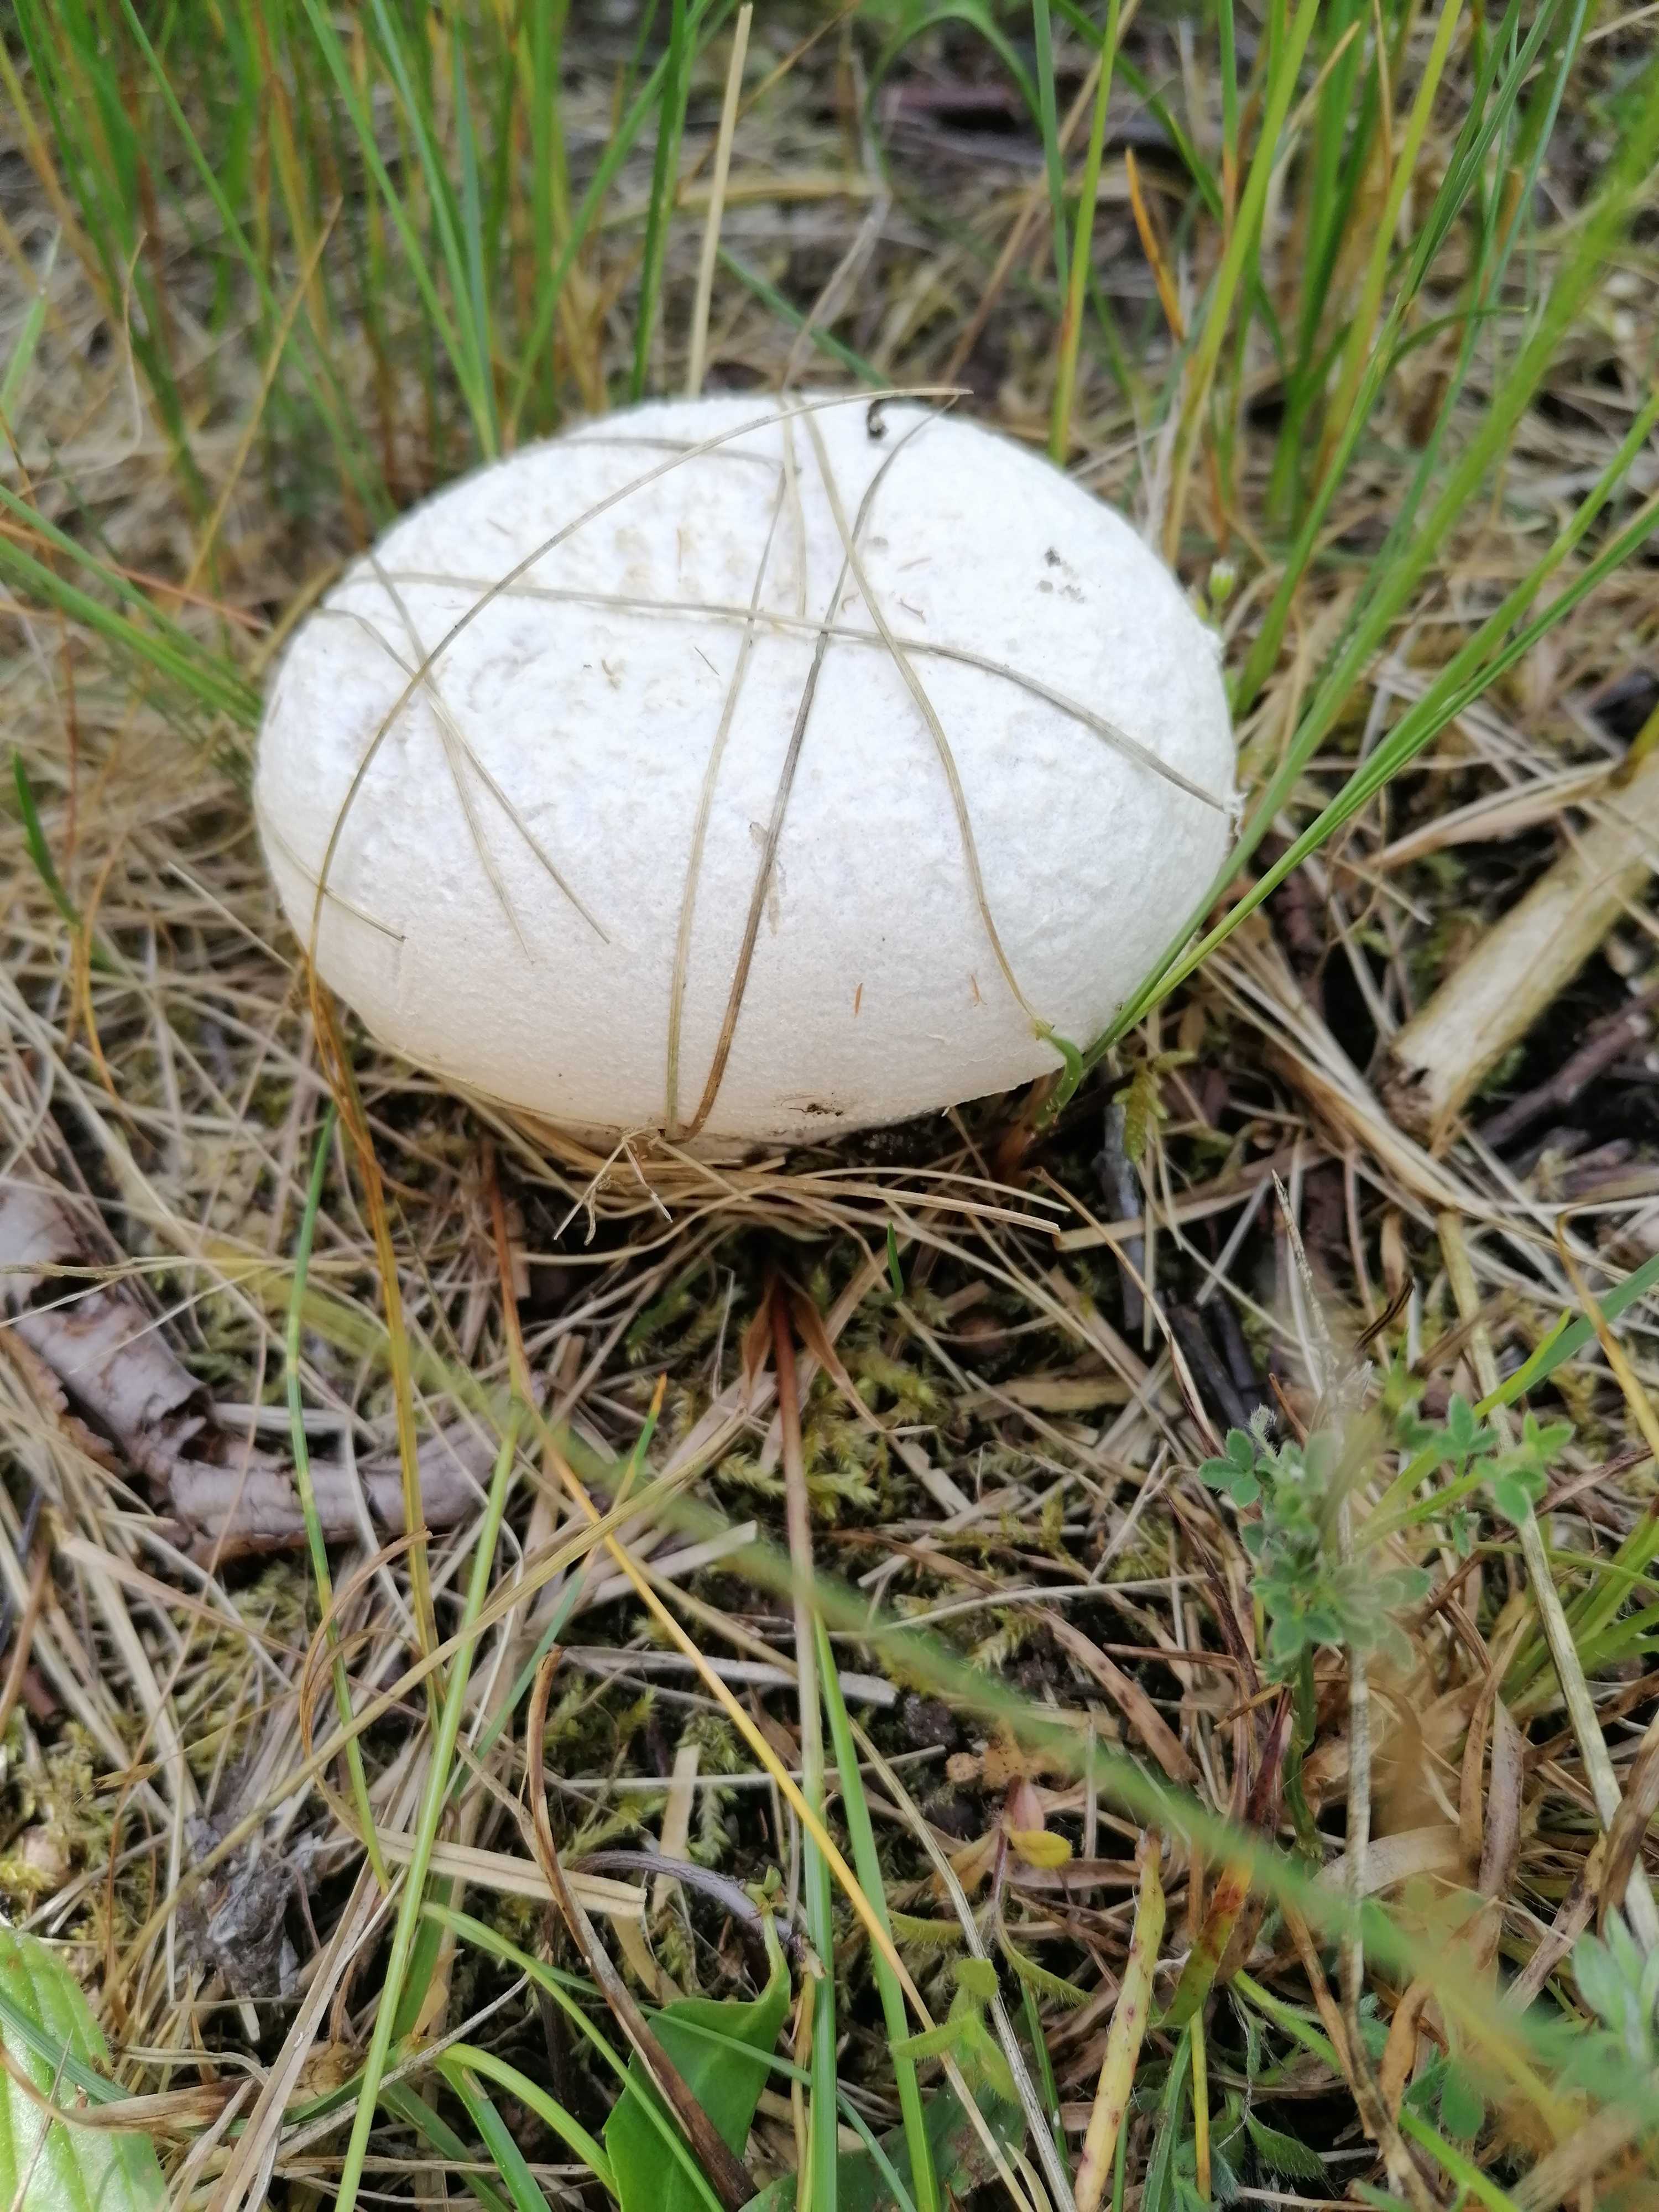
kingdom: Fungi
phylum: Basidiomycota
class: Agaricomycetes
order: Agaricales
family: Lycoperdaceae
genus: Bovistella
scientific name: Bovistella utriformis
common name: skællet støvbold
